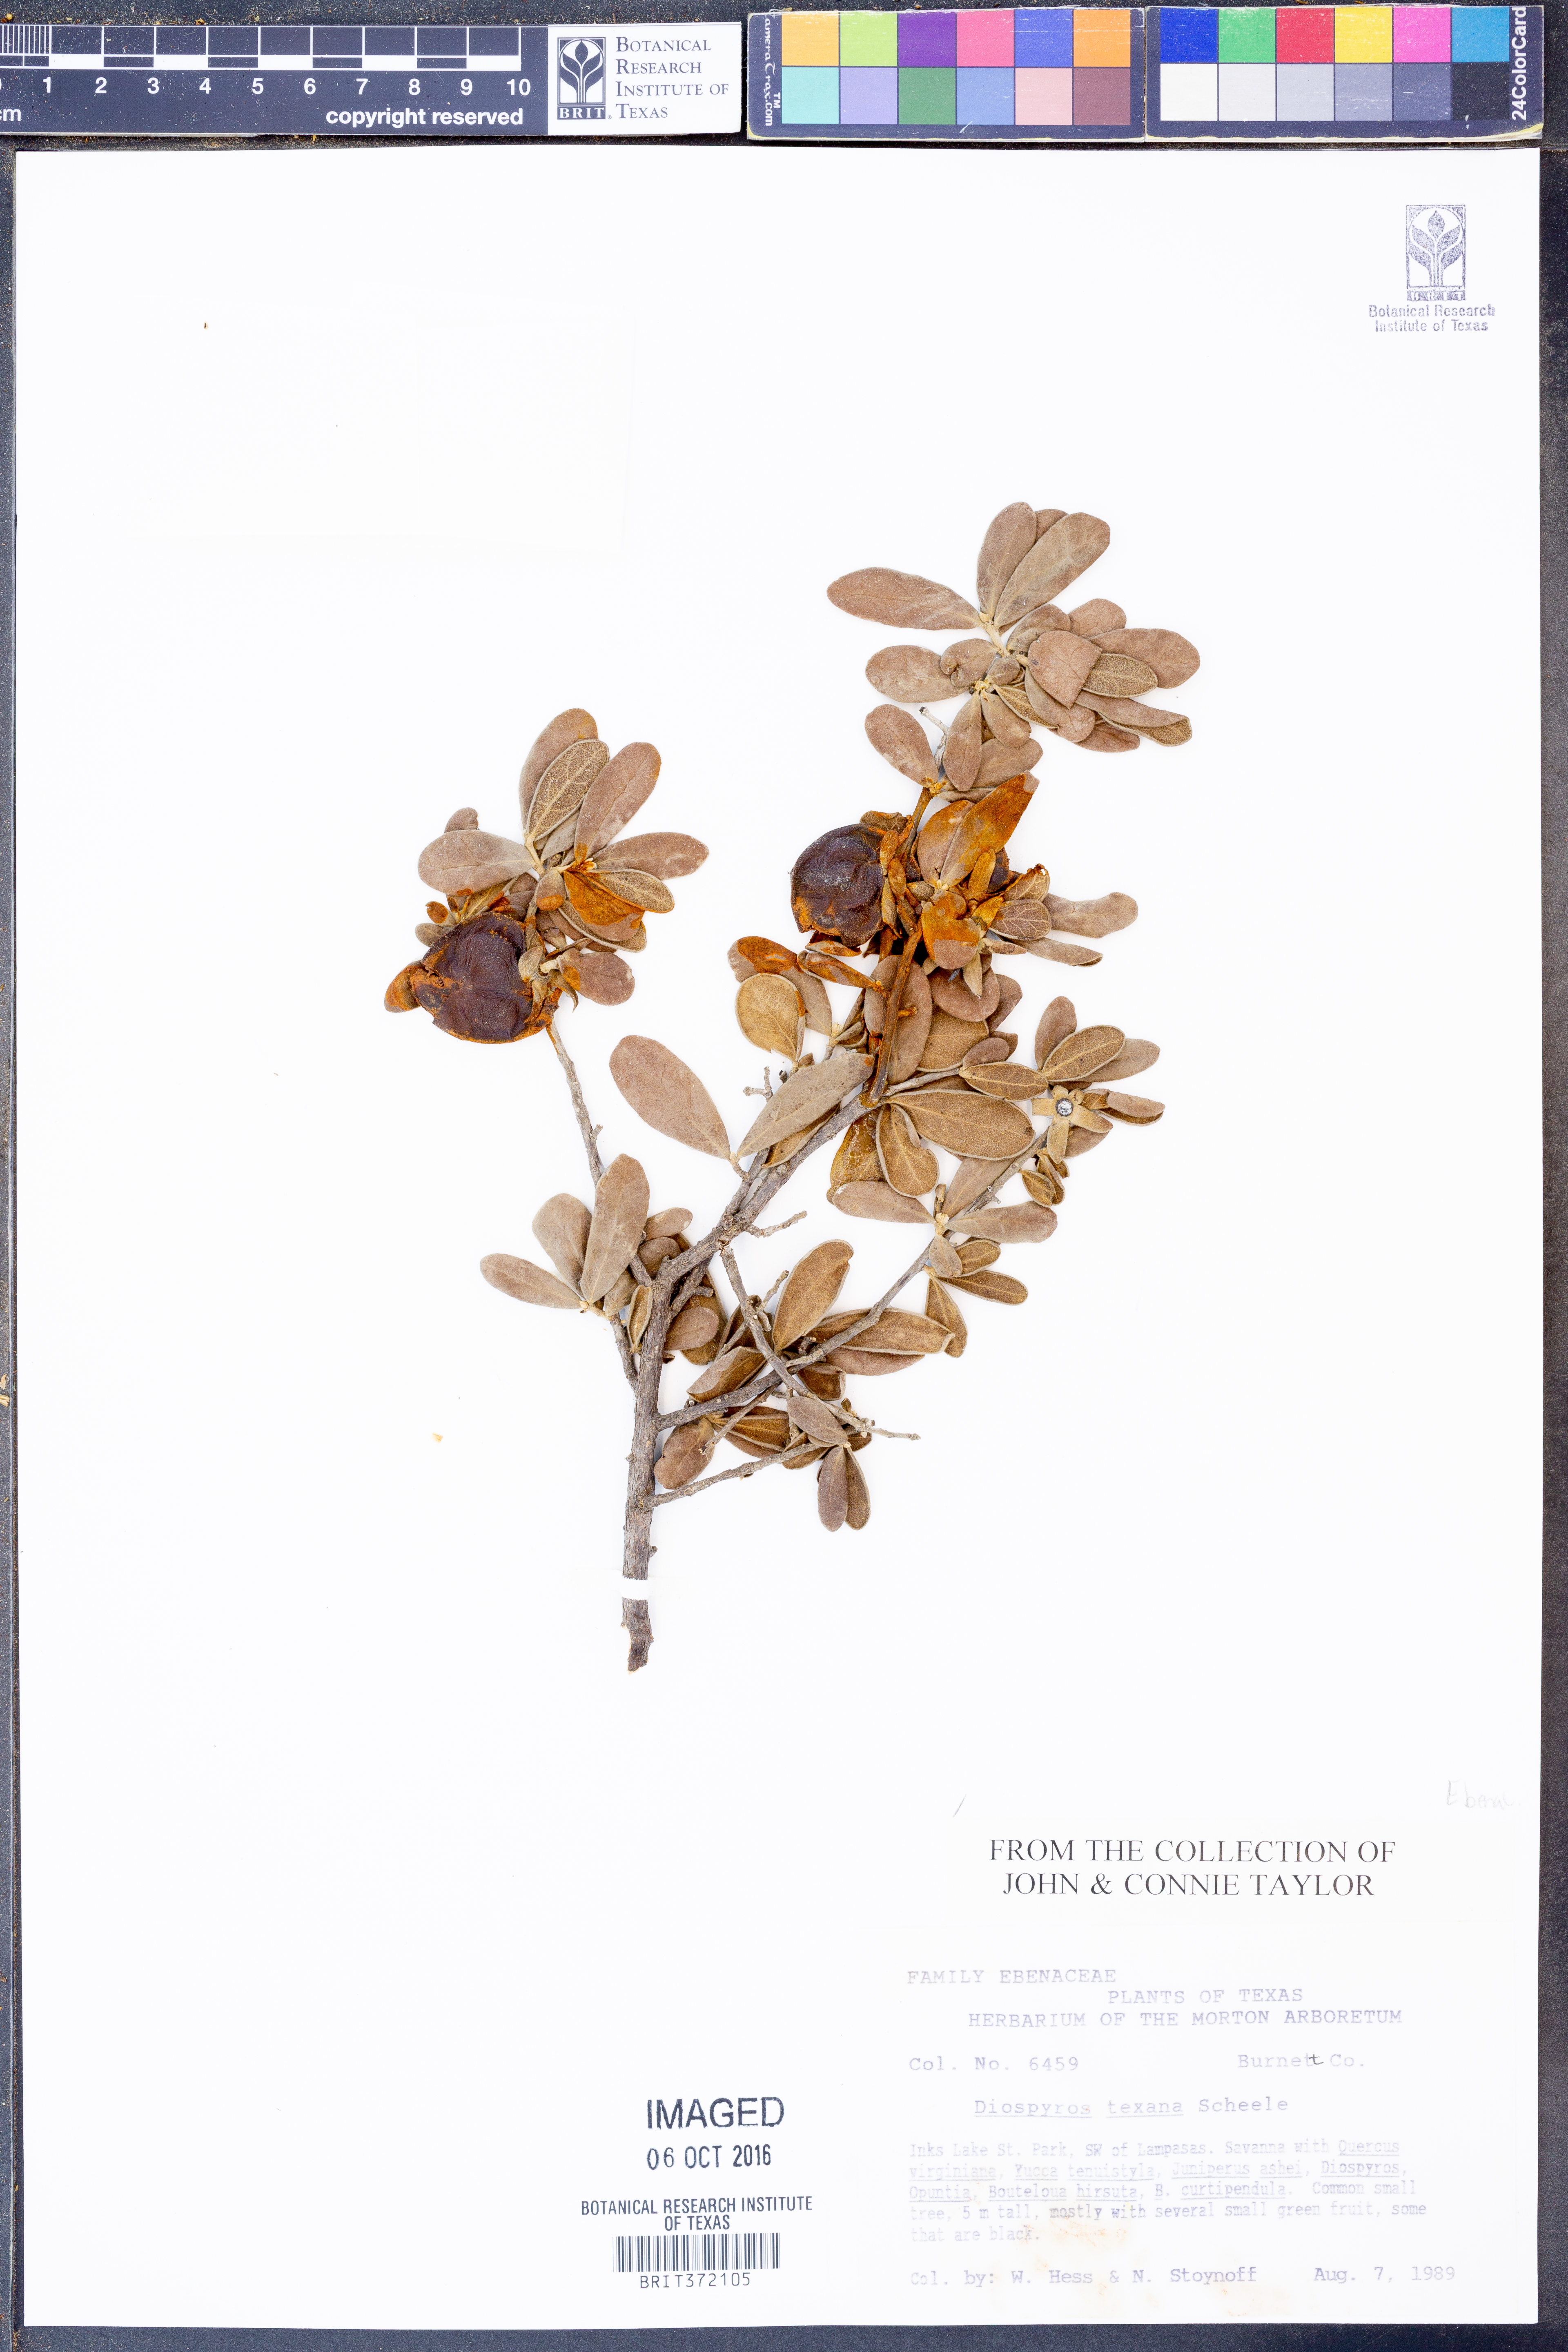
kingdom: Plantae
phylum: Tracheophyta
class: Magnoliopsida
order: Ericales
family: Ebenaceae
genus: Diospyros
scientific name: Diospyros texana
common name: Texas persimmon
